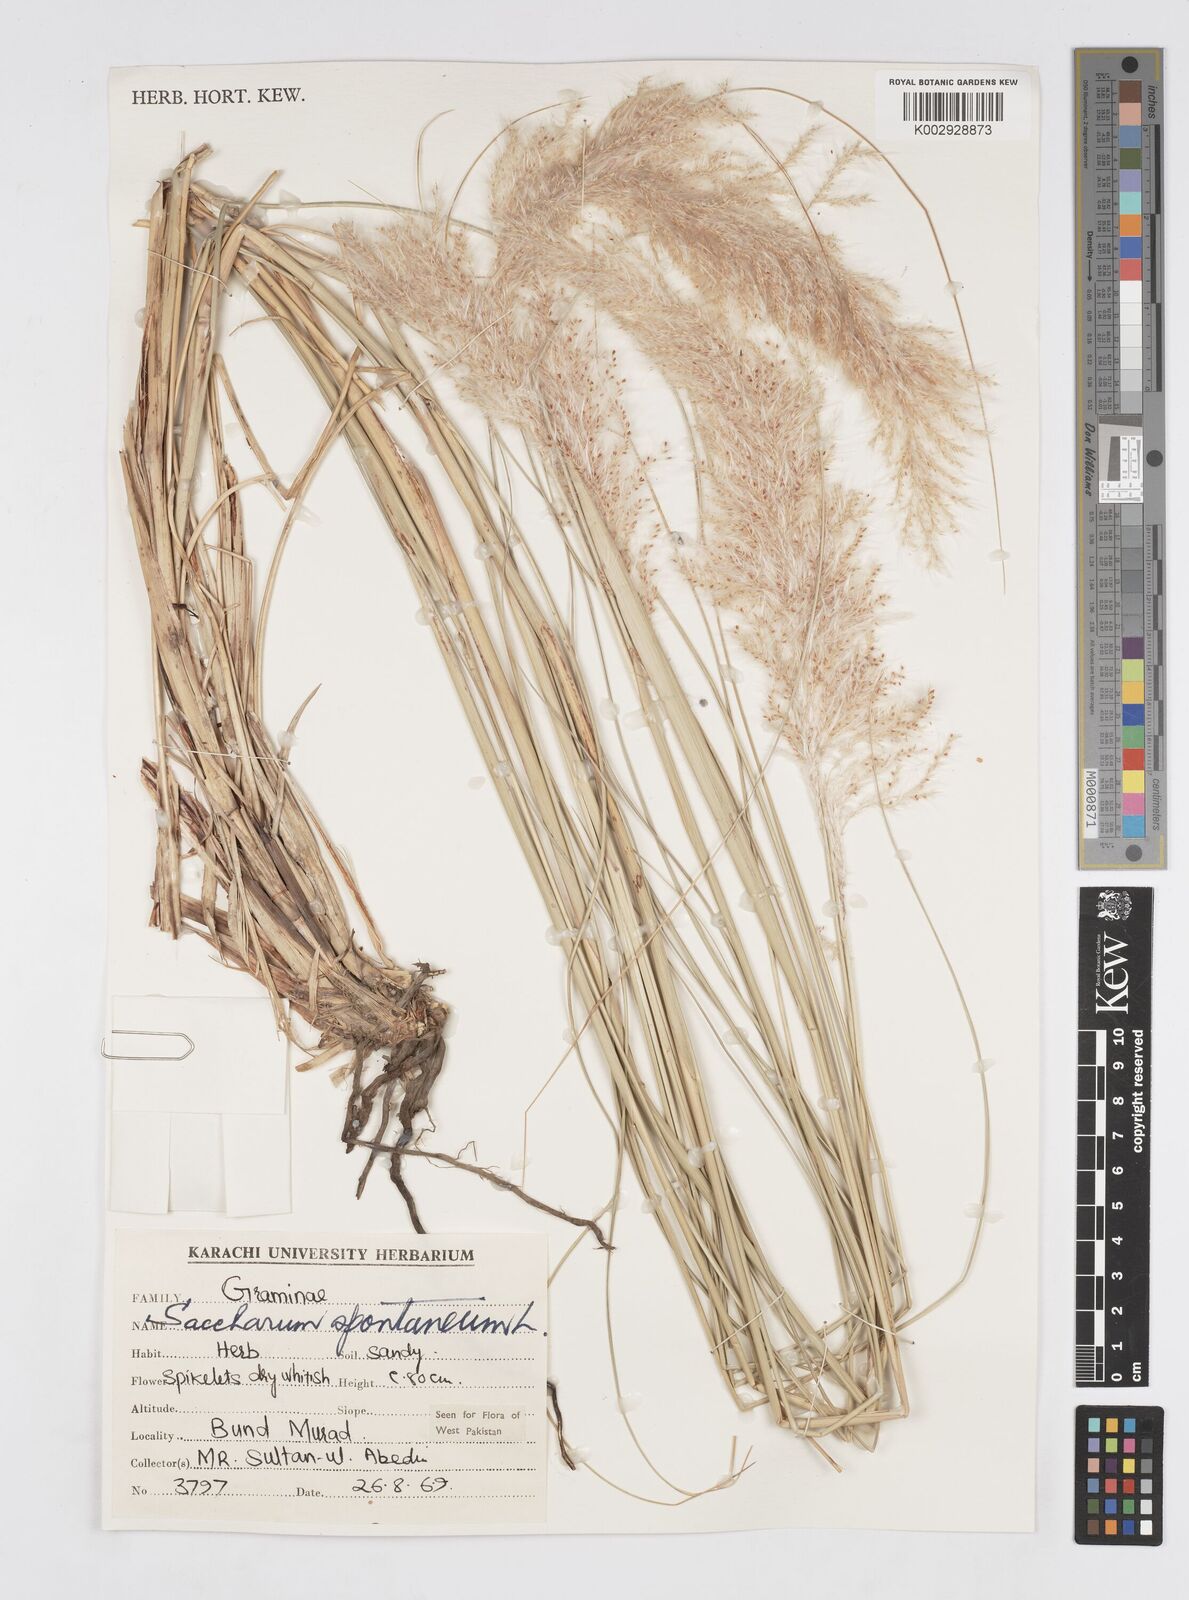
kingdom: Plantae
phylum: Tracheophyta
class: Liliopsida
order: Poales
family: Poaceae
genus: Saccharum
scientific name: Saccharum spontaneum
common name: Wild sugarcane
